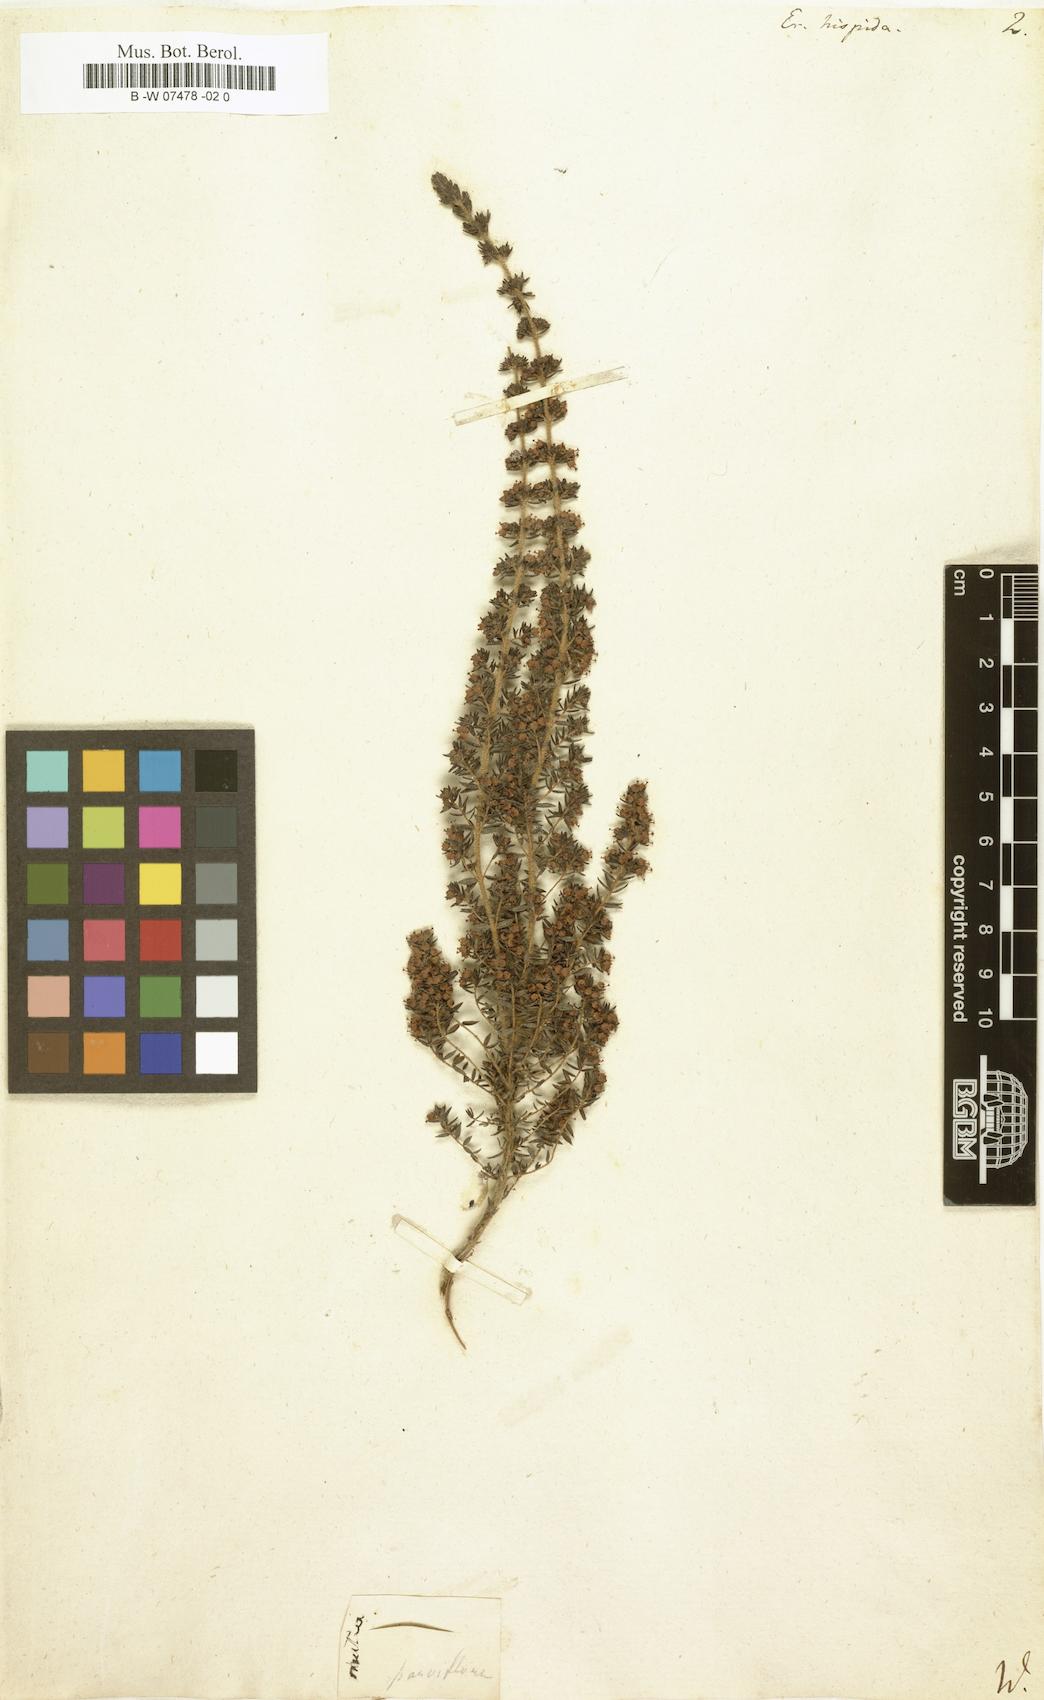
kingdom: Plantae
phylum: Tracheophyta
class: Magnoliopsida
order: Ericales
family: Ericaceae
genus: Erica
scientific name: Erica
